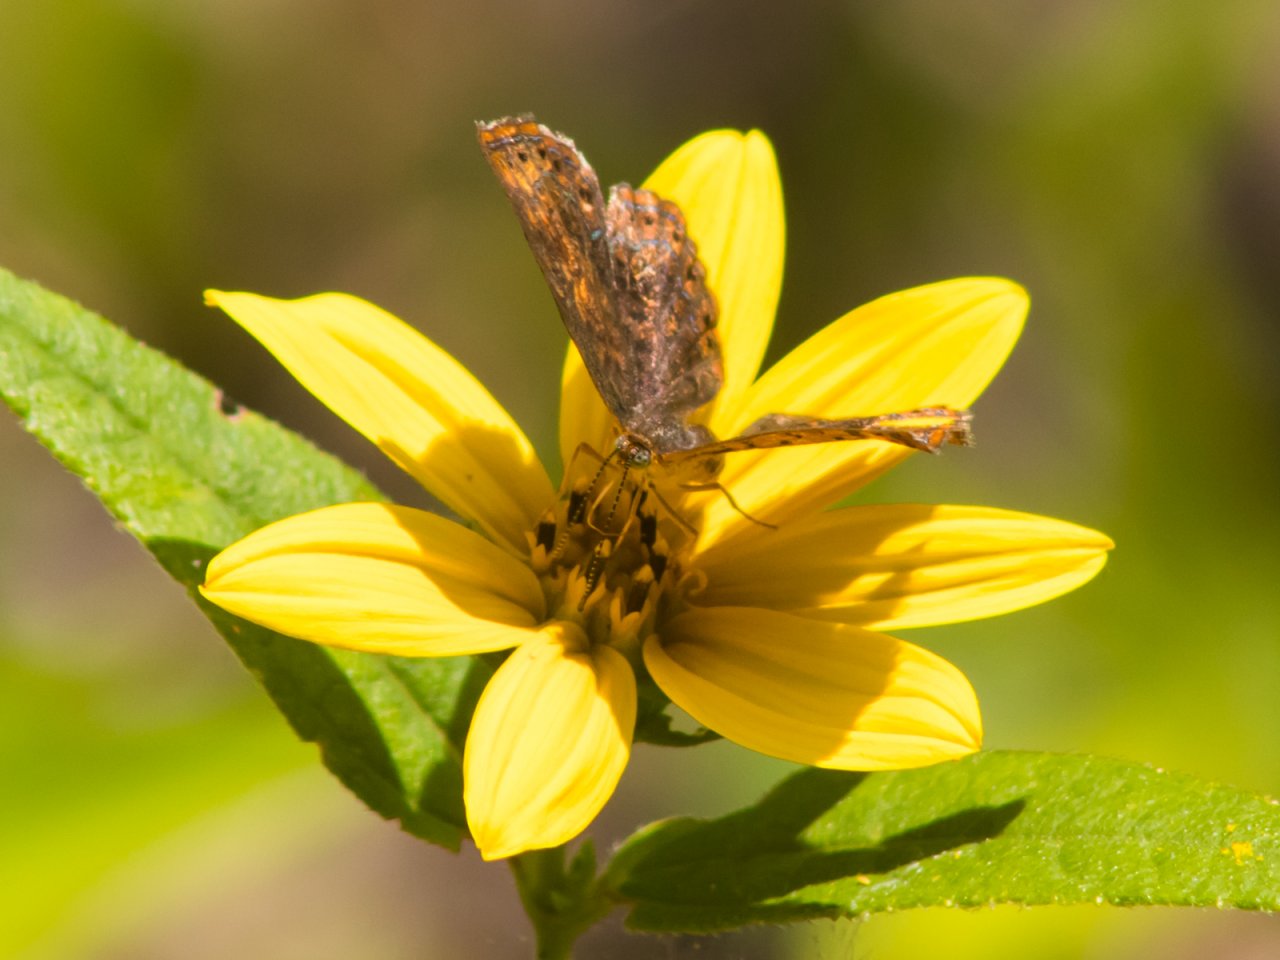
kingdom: Animalia
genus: Calephelis
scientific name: Calephelis borealis
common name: Northern Metalmark
